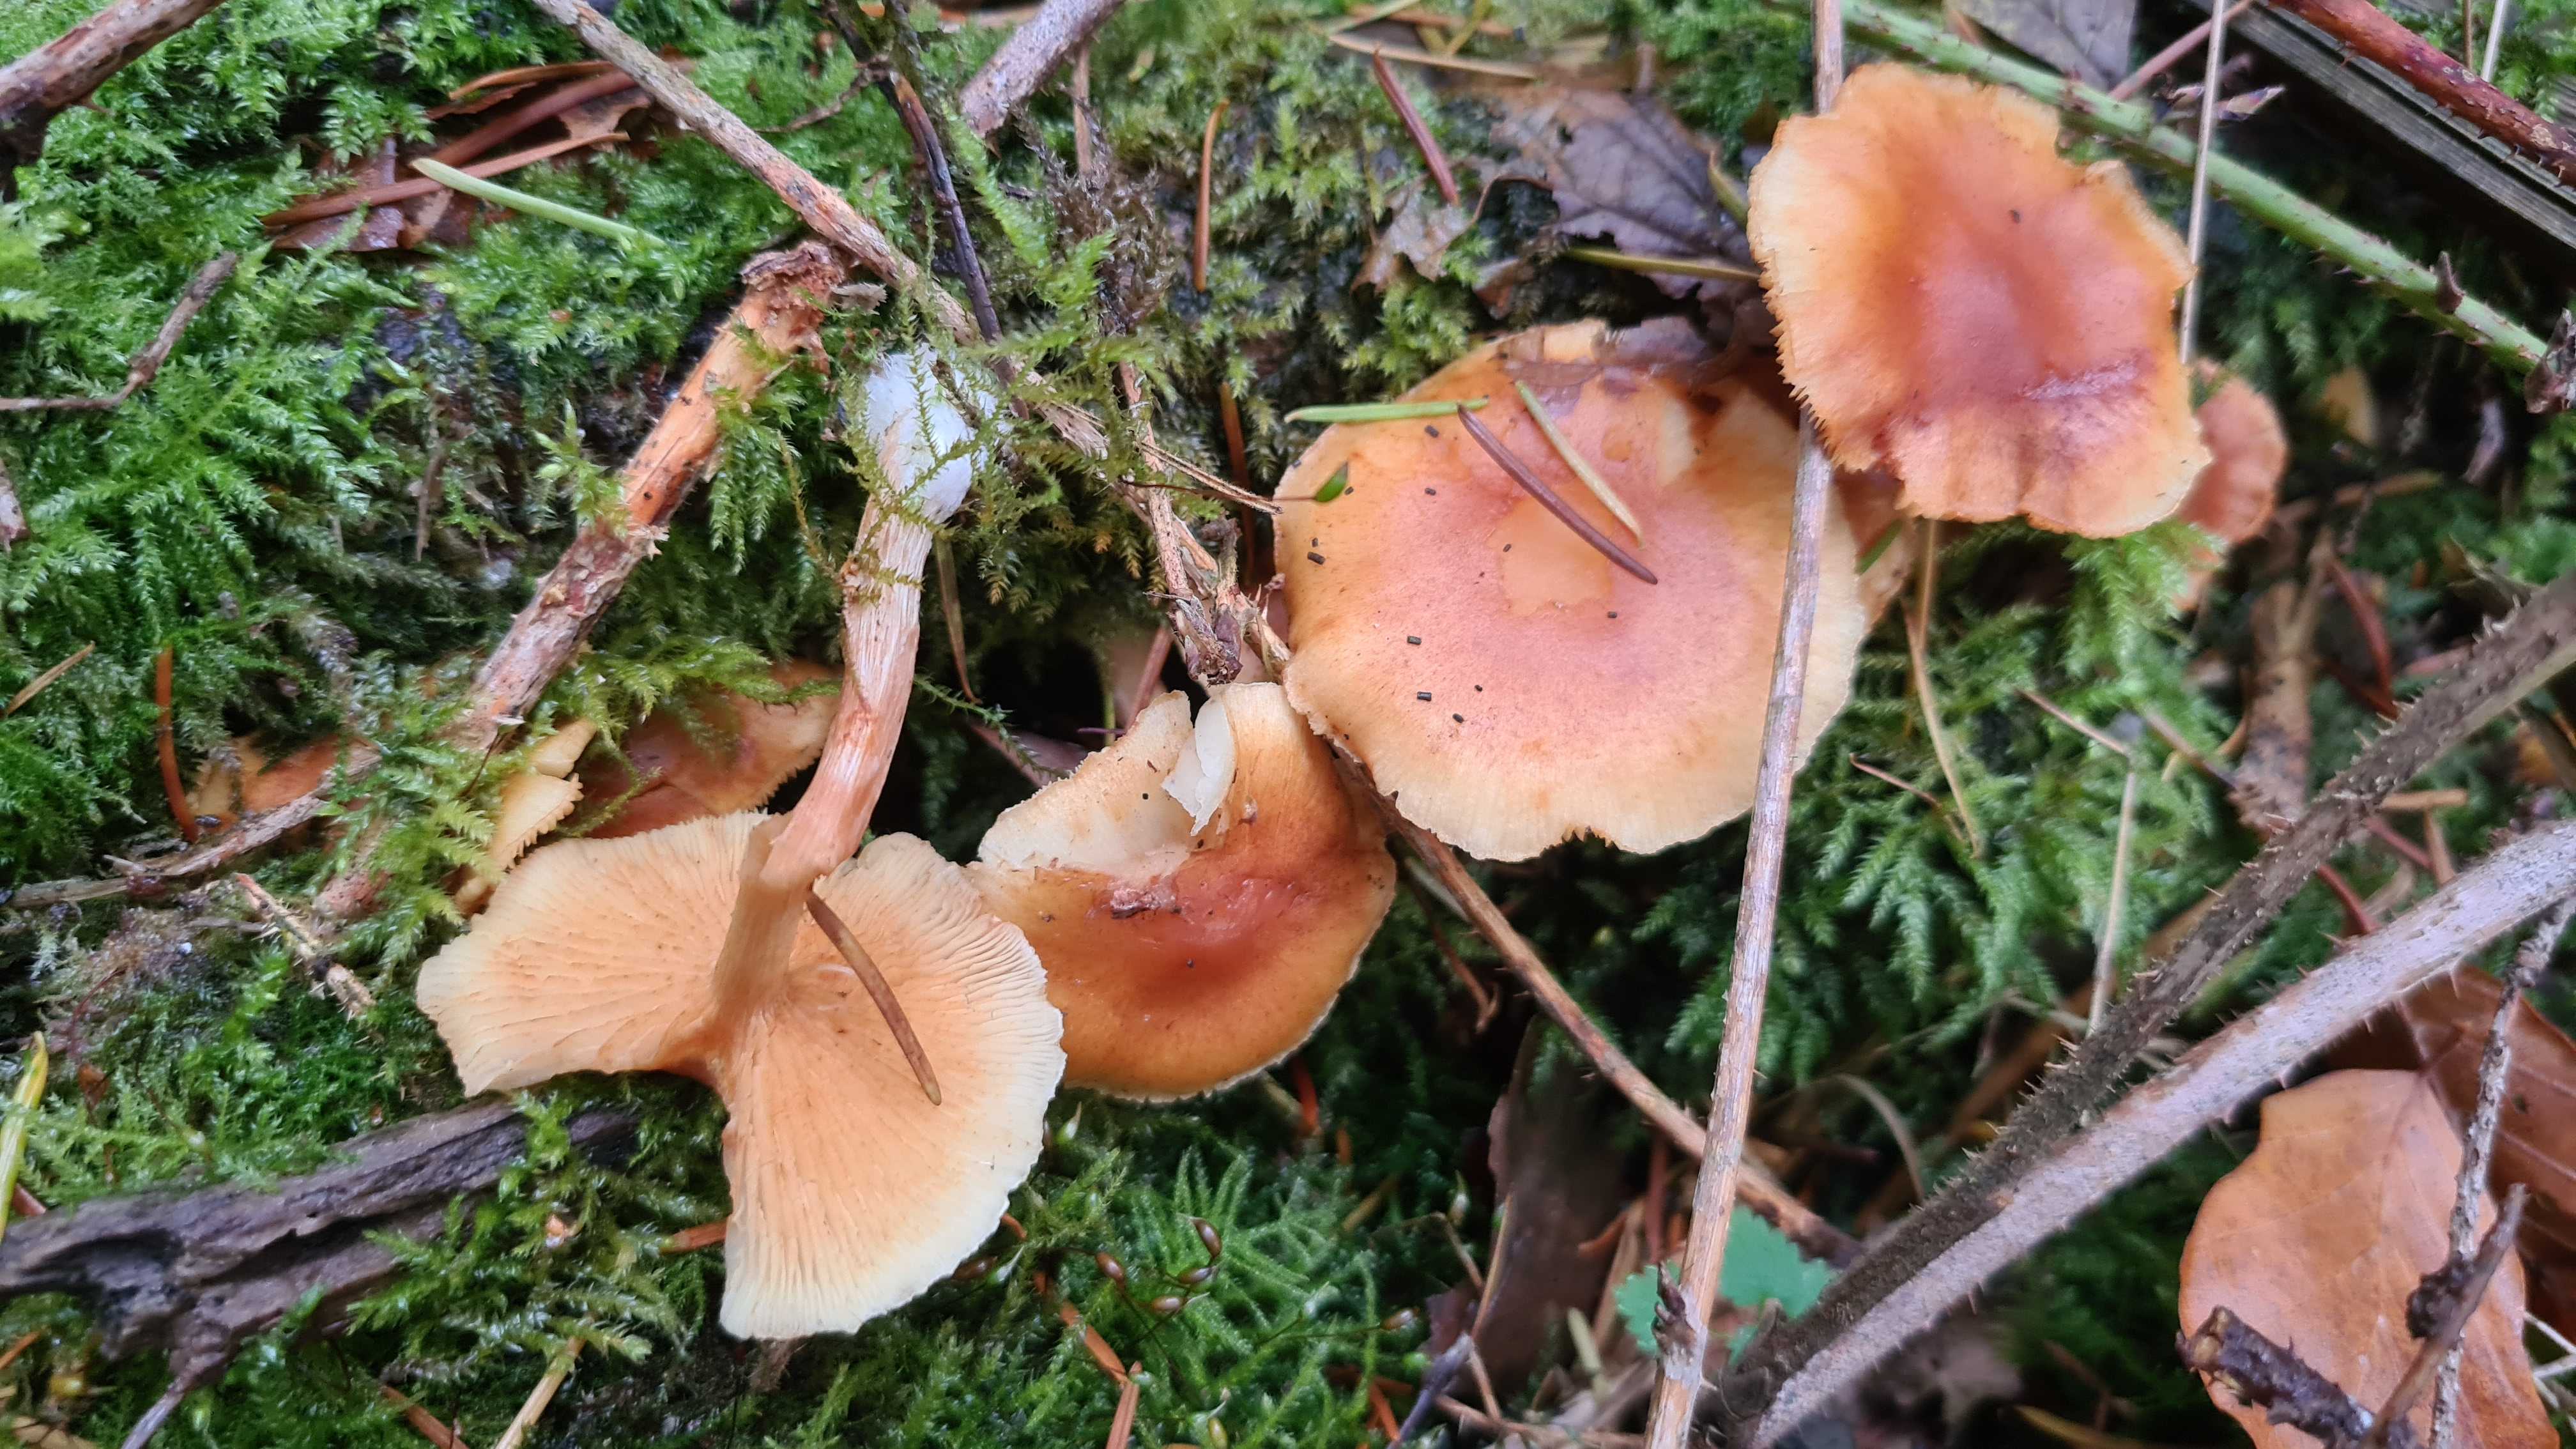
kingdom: Fungi
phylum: Basidiomycota
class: Agaricomycetes
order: Agaricales
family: Hymenogastraceae
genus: Gymnopilus
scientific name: Gymnopilus penetrans
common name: plettet flammehat
